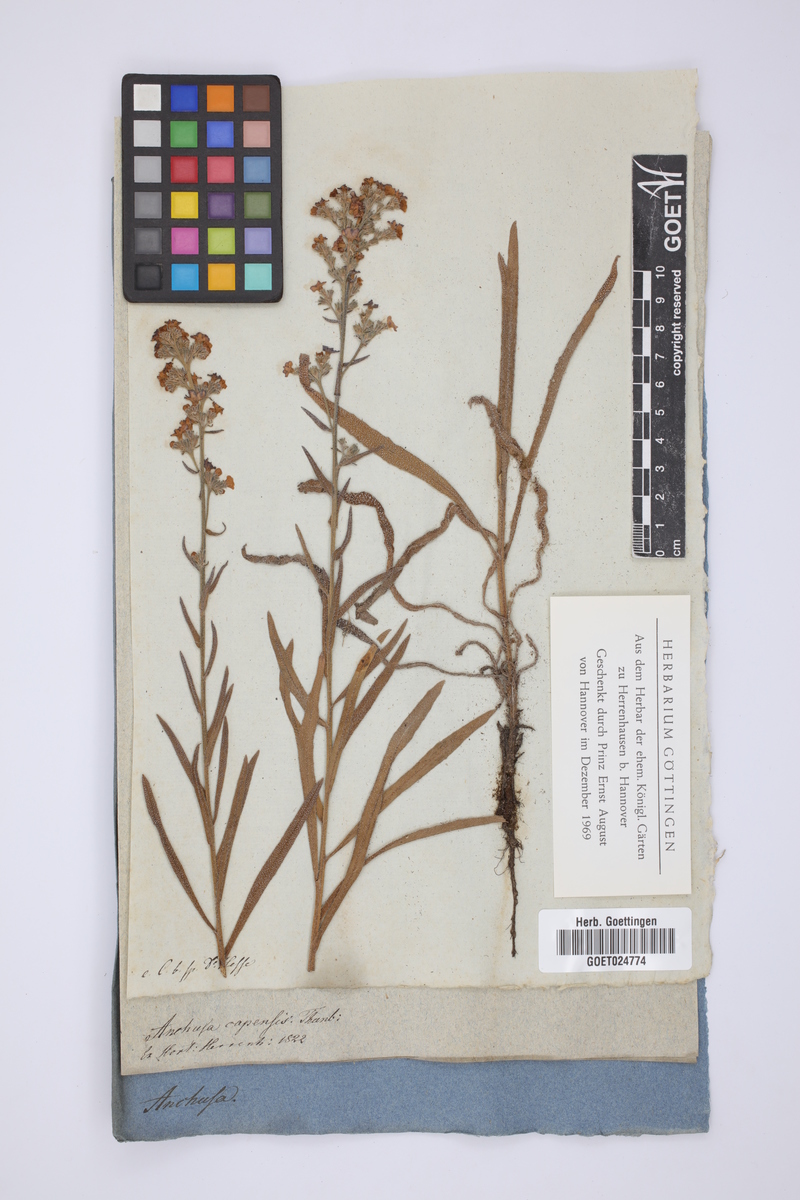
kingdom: Plantae
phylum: Tracheophyta
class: Magnoliopsida
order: Boraginales
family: Boraginaceae
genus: Anchusa
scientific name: Anchusa capensis
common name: Cape bugloss
